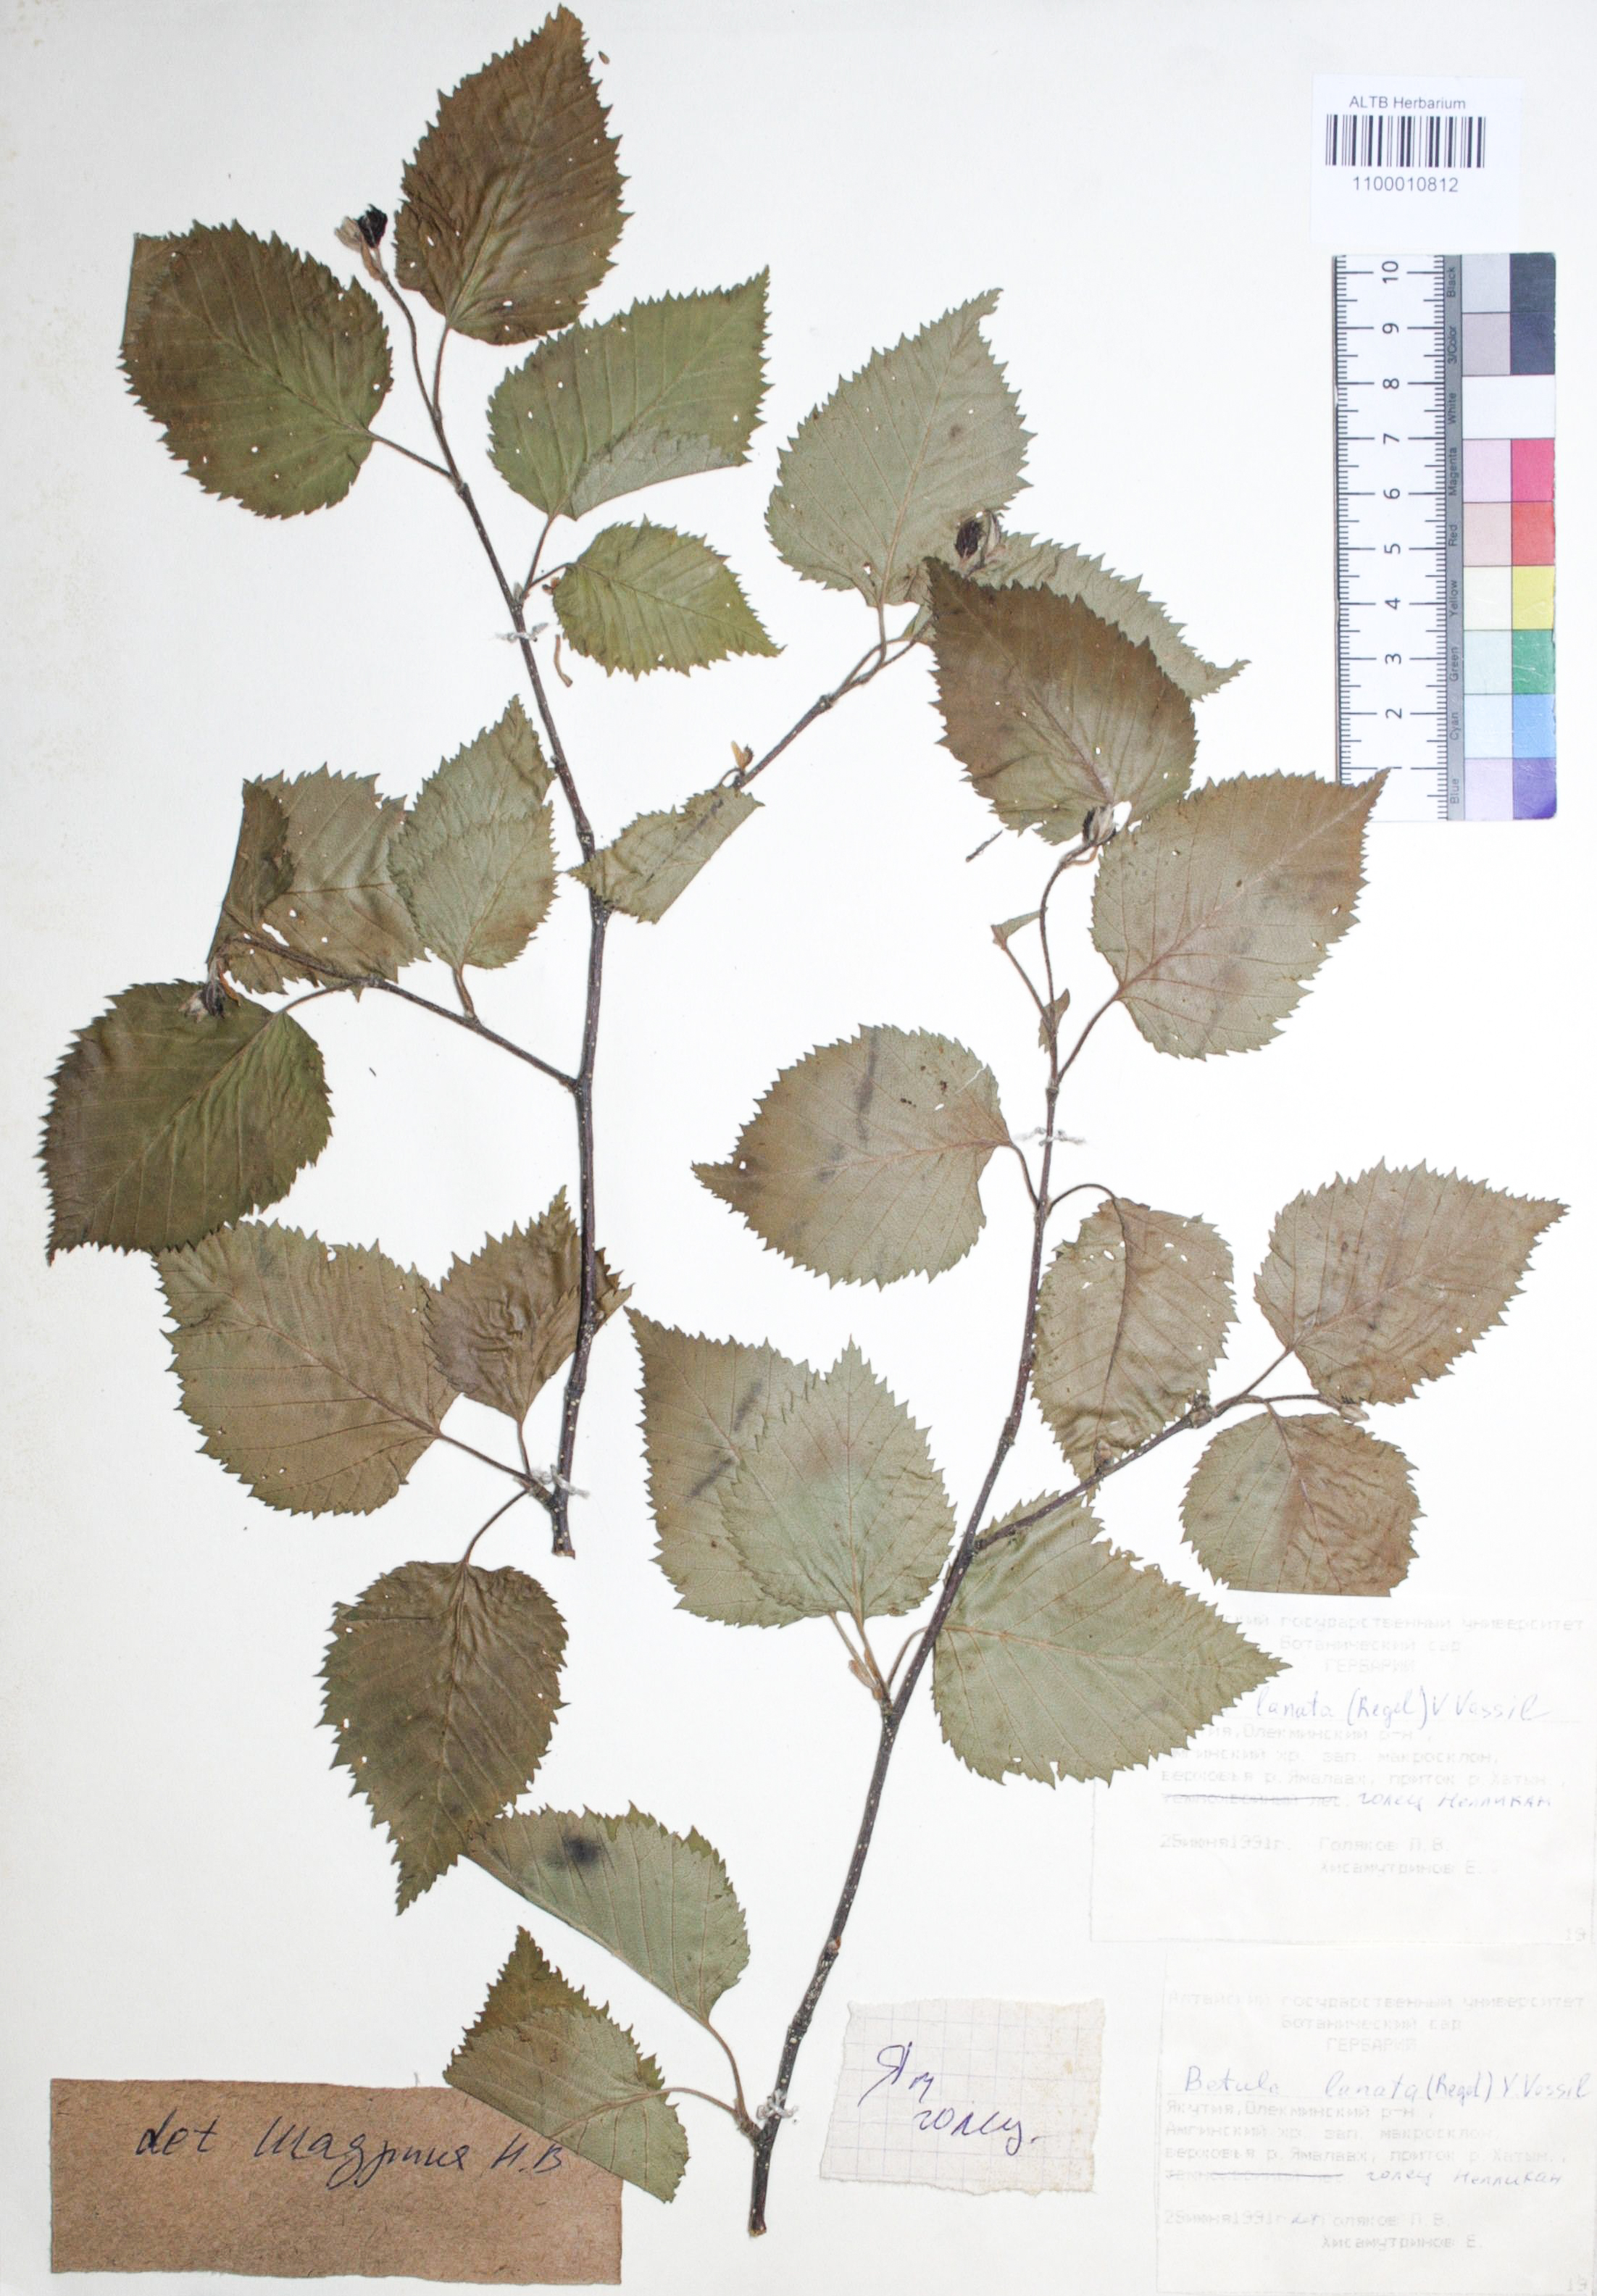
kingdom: Plantae
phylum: Tracheophyta
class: Magnoliopsida
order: Fagales
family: Betulaceae
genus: Betula
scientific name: Betula ermanii
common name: Erman's birch
